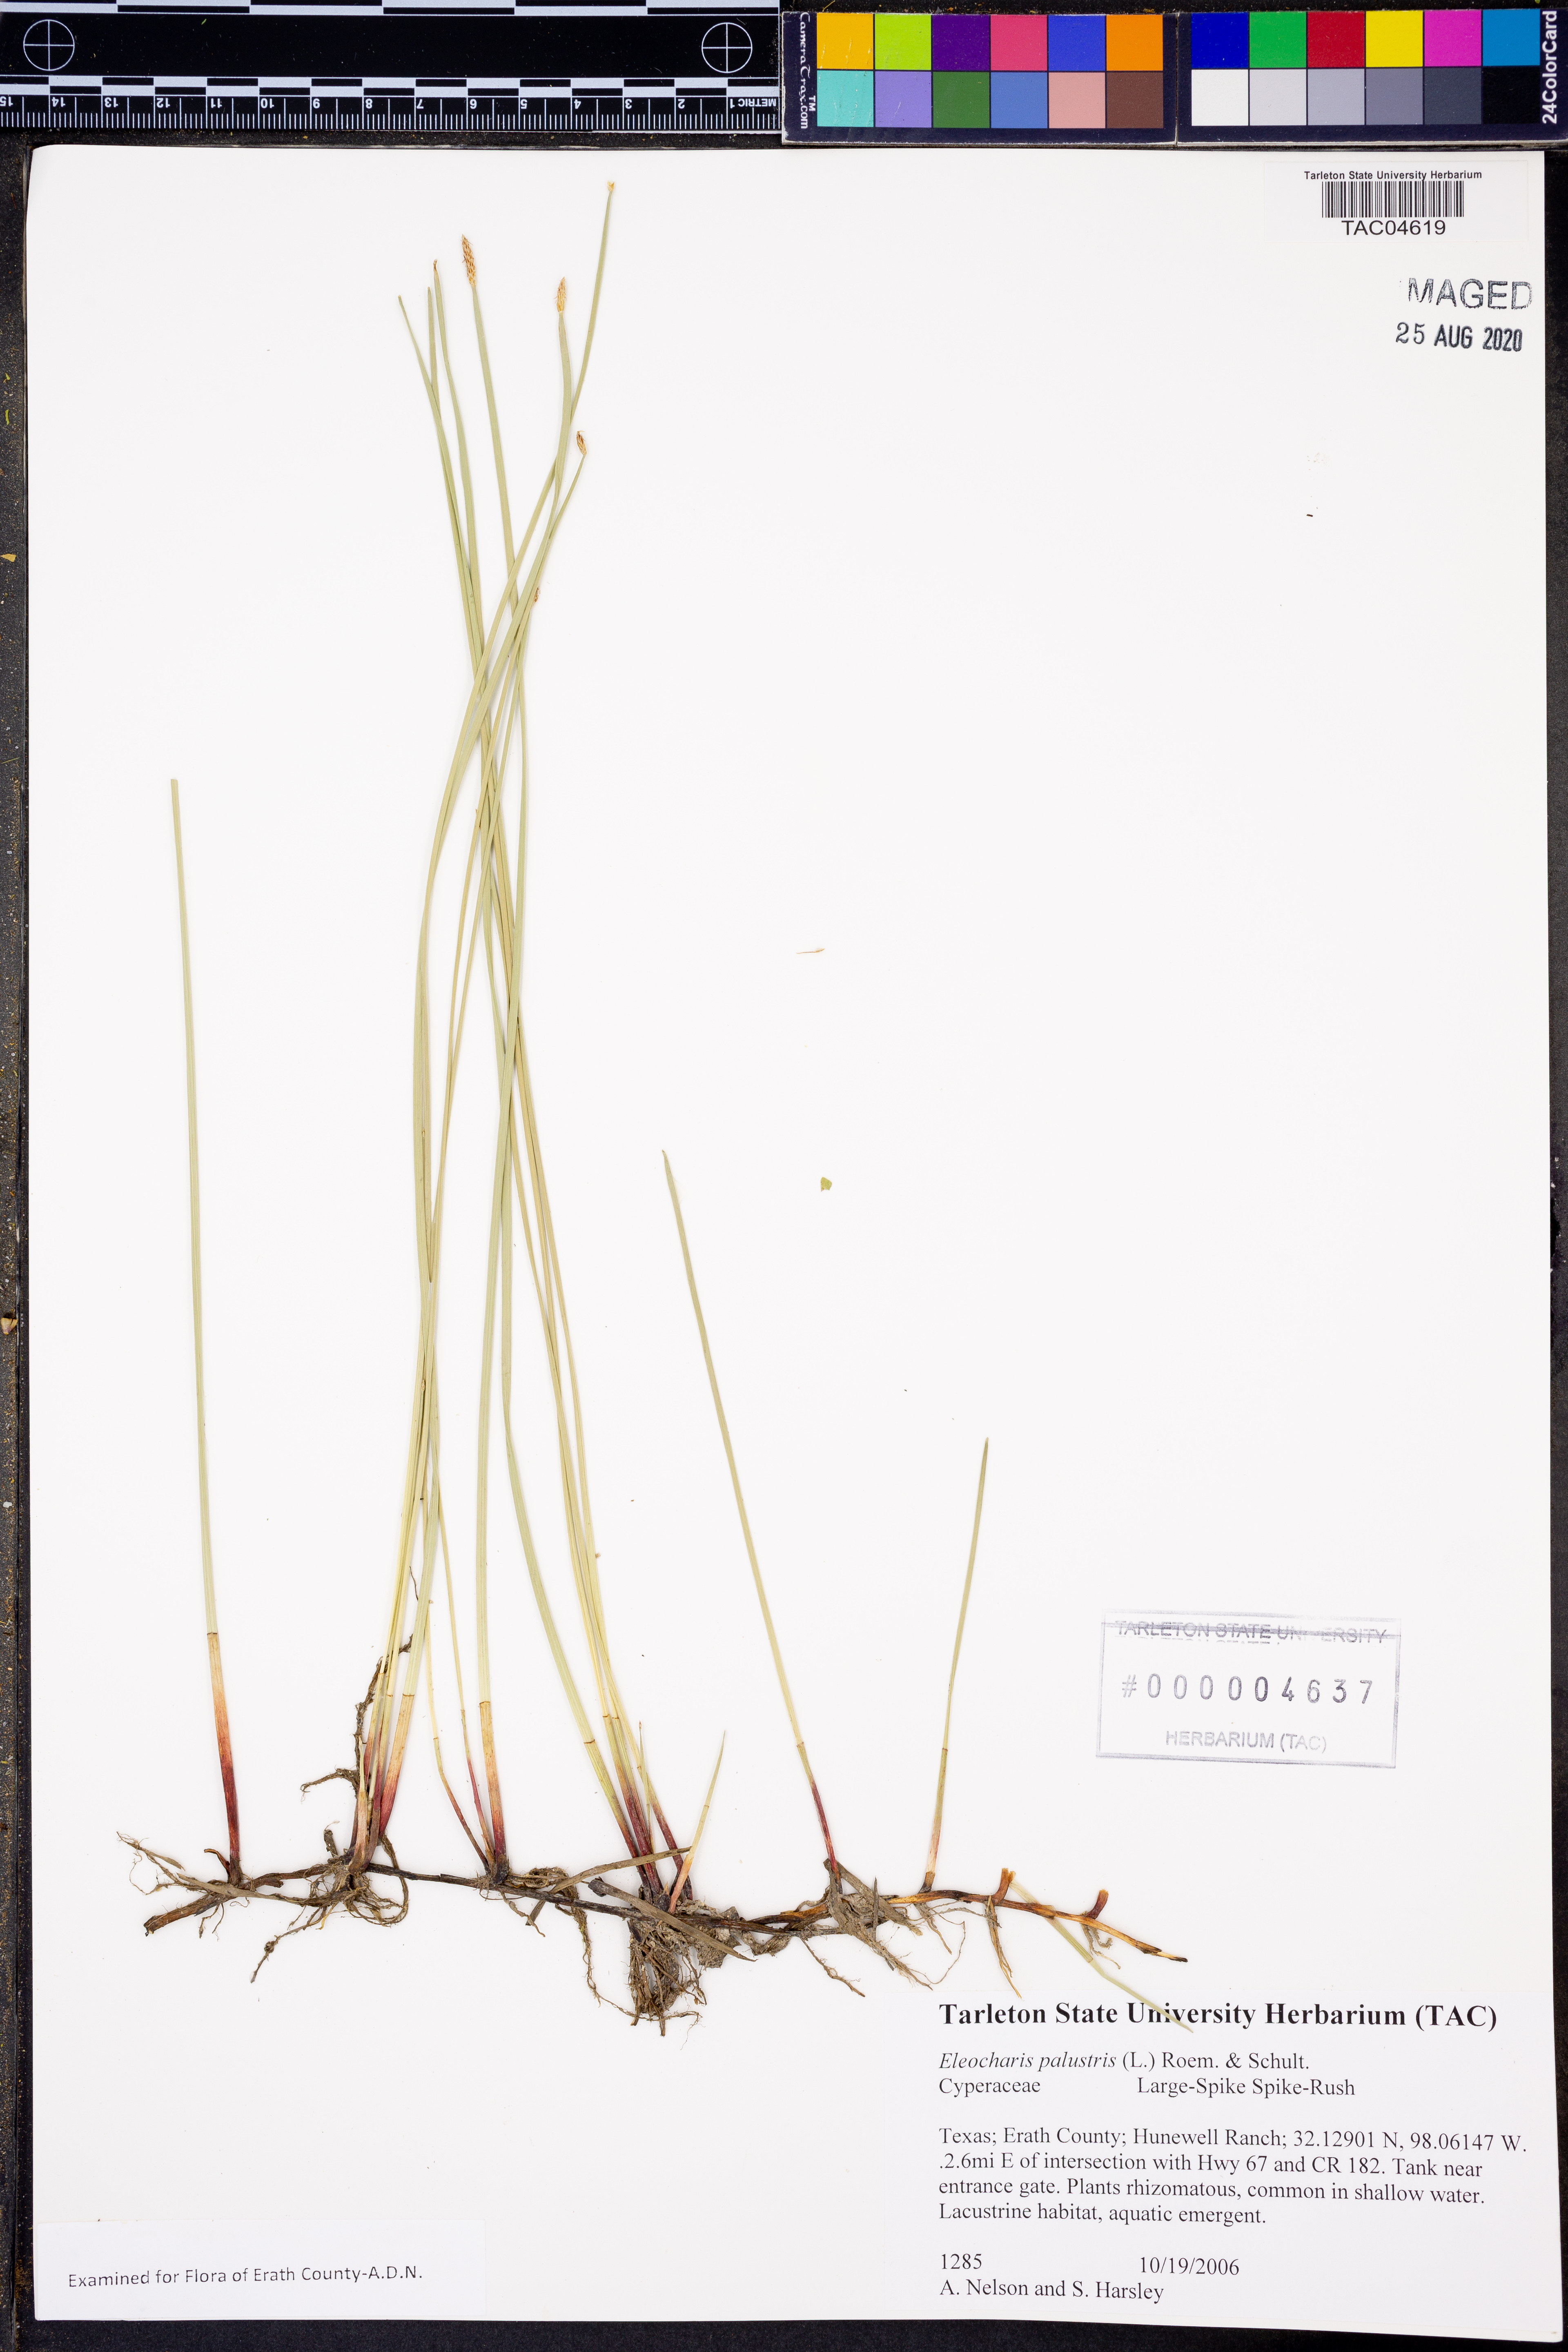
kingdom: Plantae
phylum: Tracheophyta
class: Liliopsida
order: Poales
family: Cyperaceae
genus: Eleocharis
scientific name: Eleocharis palustris
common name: Common spike-rush
